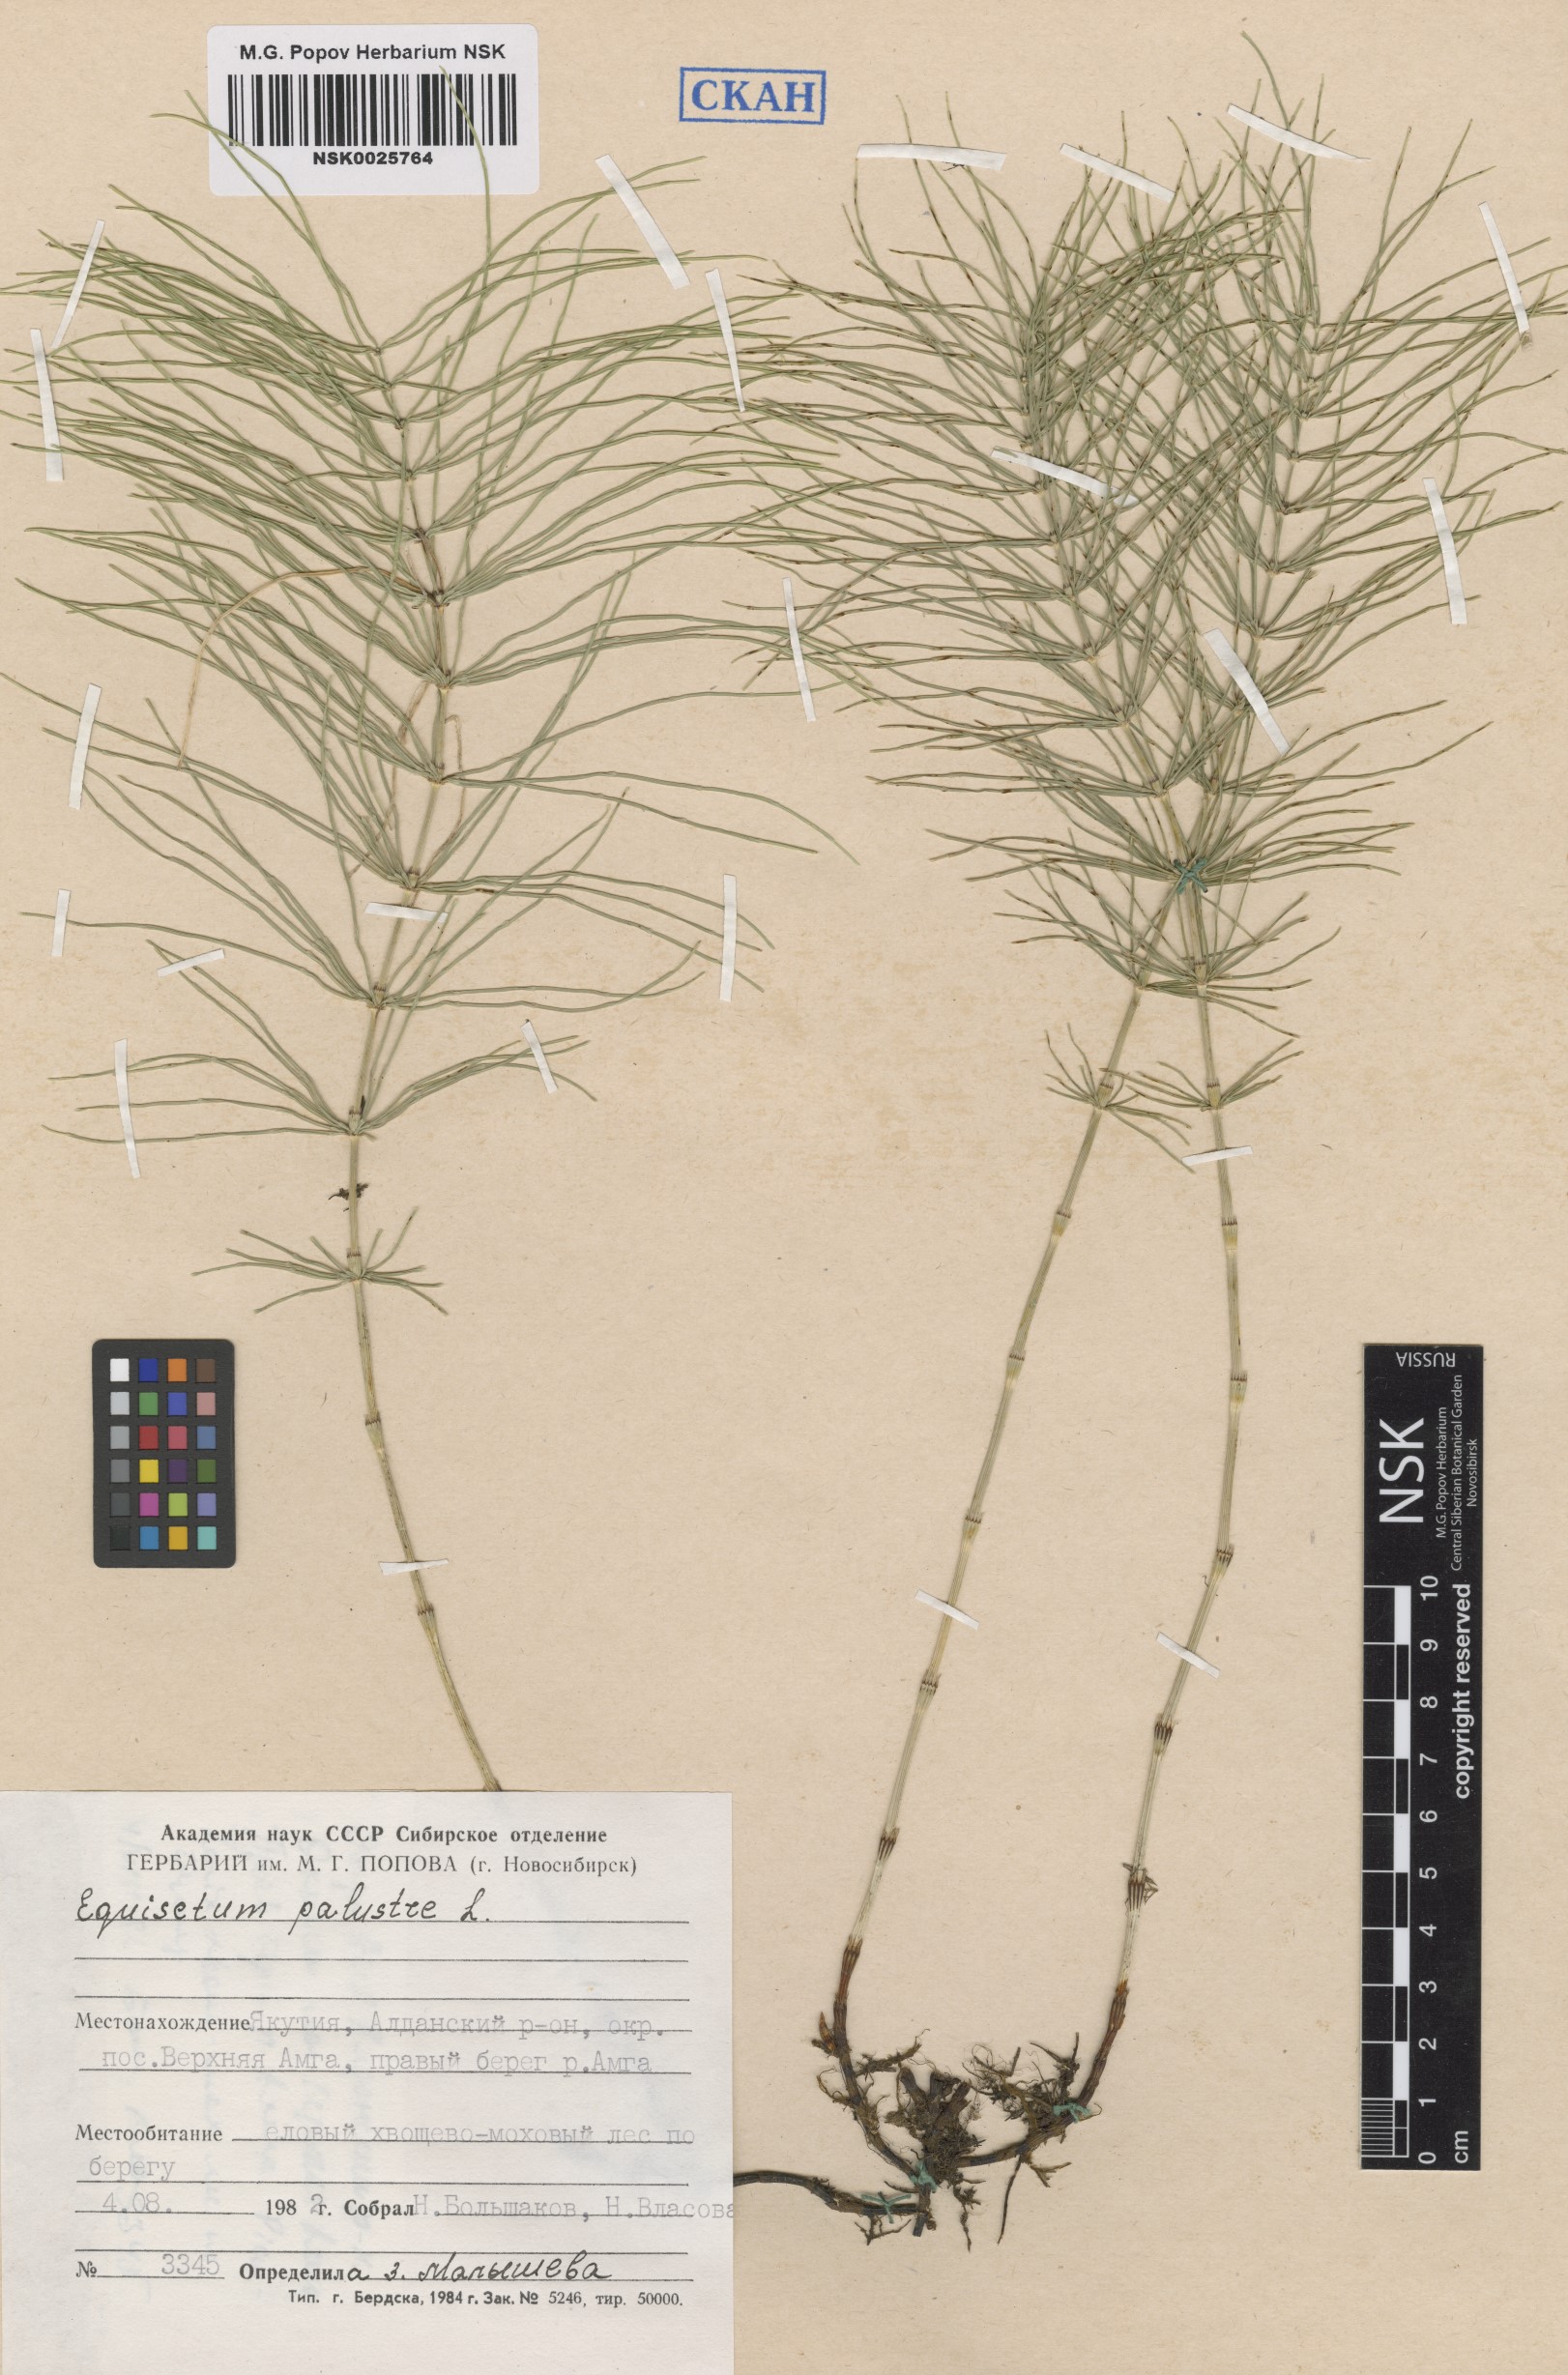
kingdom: Plantae
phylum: Tracheophyta
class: Polypodiopsida
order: Equisetales
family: Equisetaceae
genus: Equisetum
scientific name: Equisetum palustre
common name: Marsh horsetail
